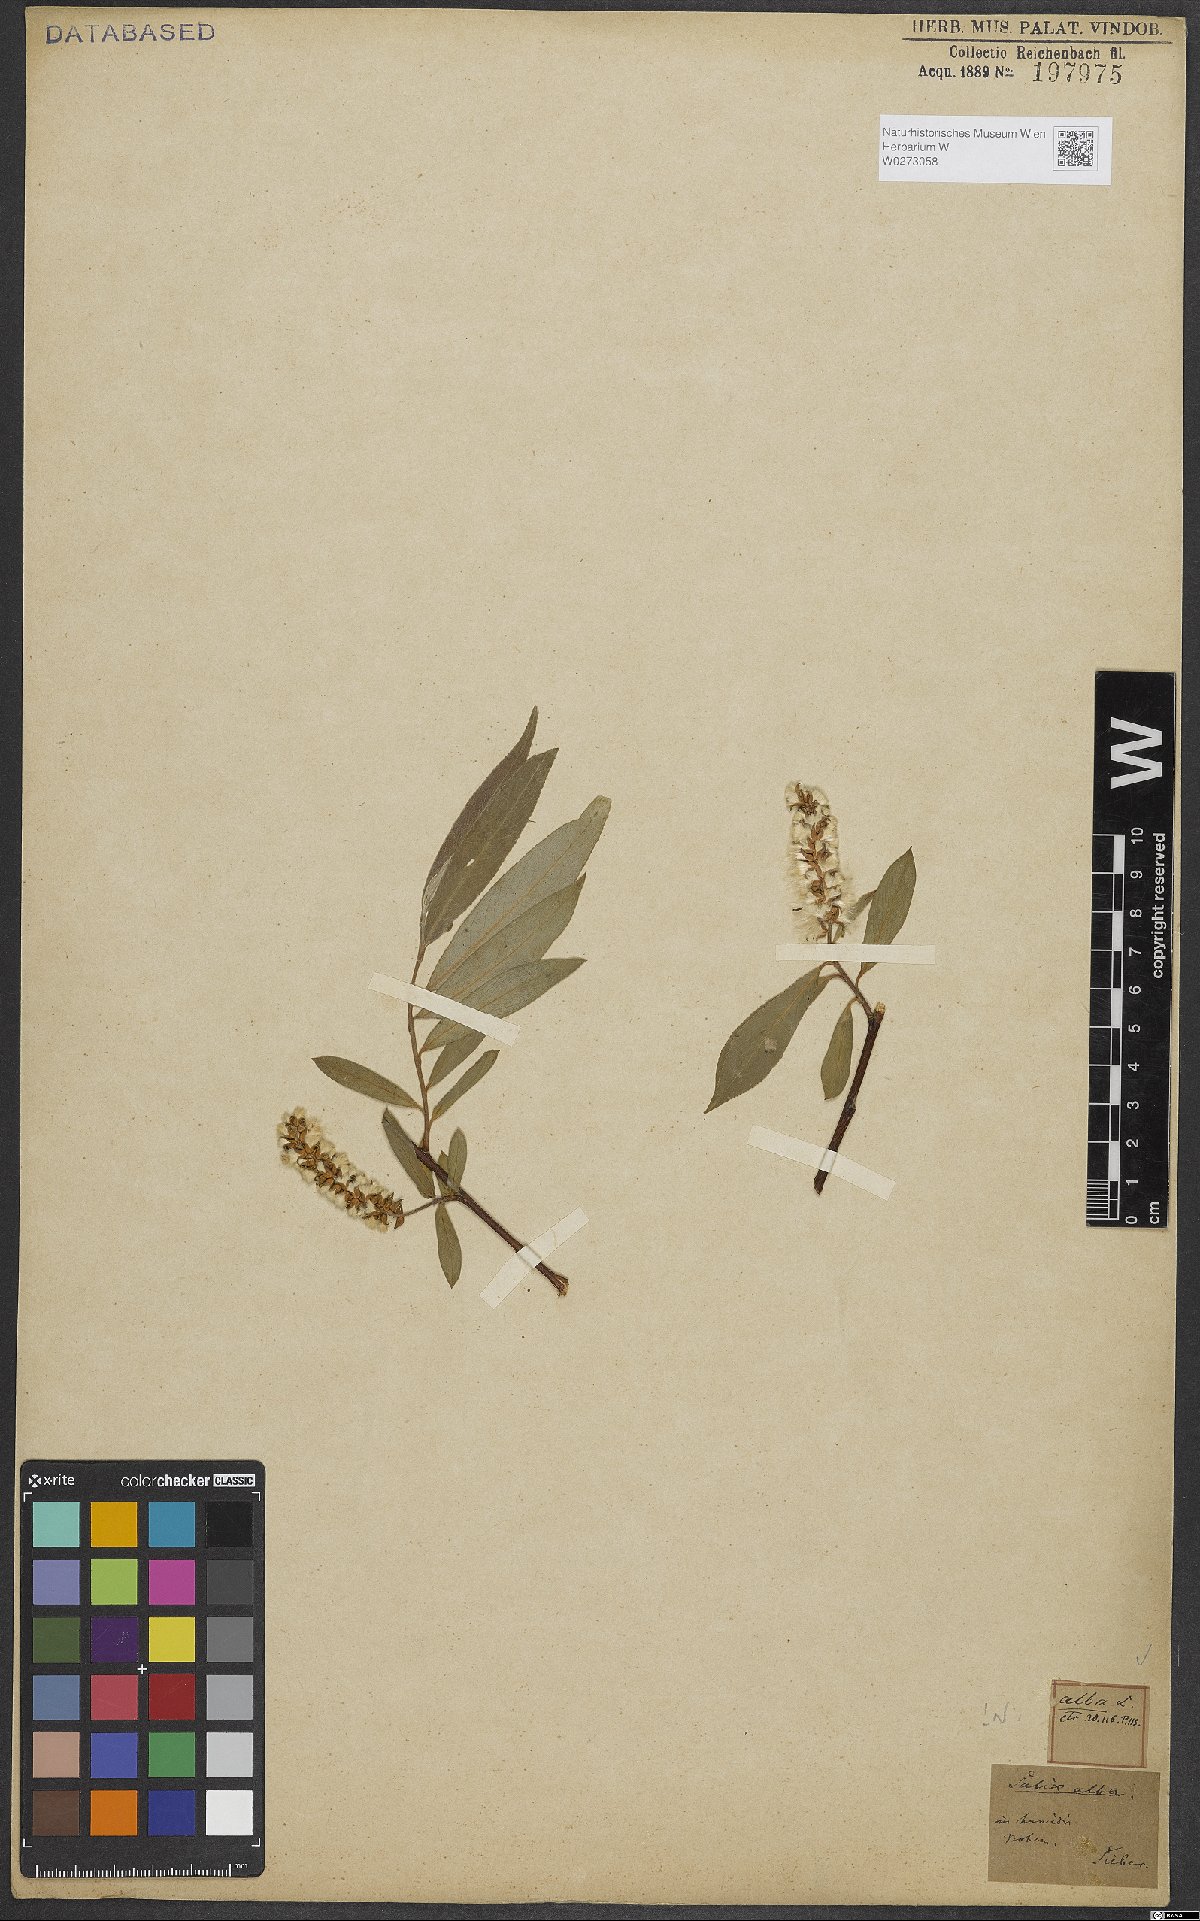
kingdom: Plantae
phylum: Tracheophyta
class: Magnoliopsida
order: Malpighiales
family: Salicaceae
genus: Salix
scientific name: Salix alba
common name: White willow
